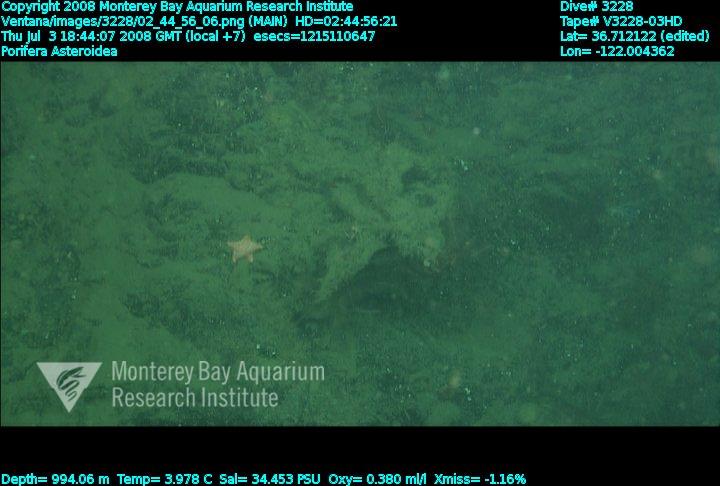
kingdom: Animalia
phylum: Porifera
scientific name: Porifera
